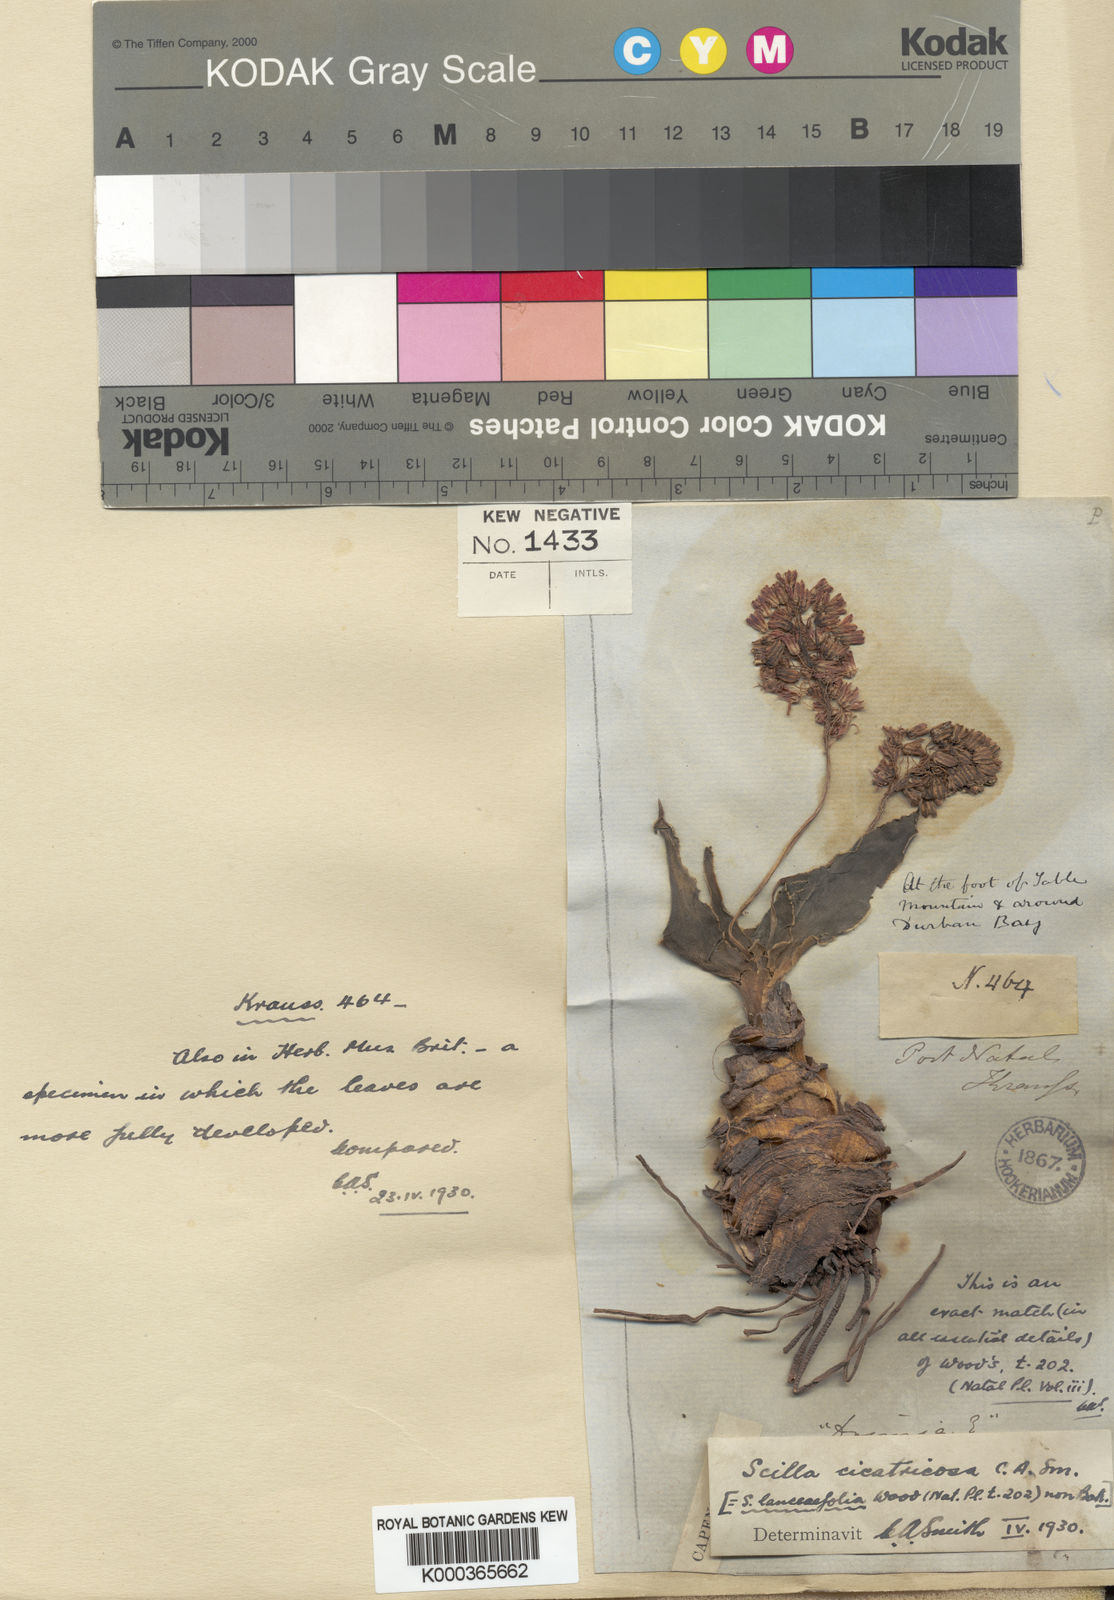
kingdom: Plantae
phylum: Tracheophyta
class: Liliopsida
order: Asparagales
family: Asparagaceae
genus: Ledebouria
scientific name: Ledebouria ovatifolia
